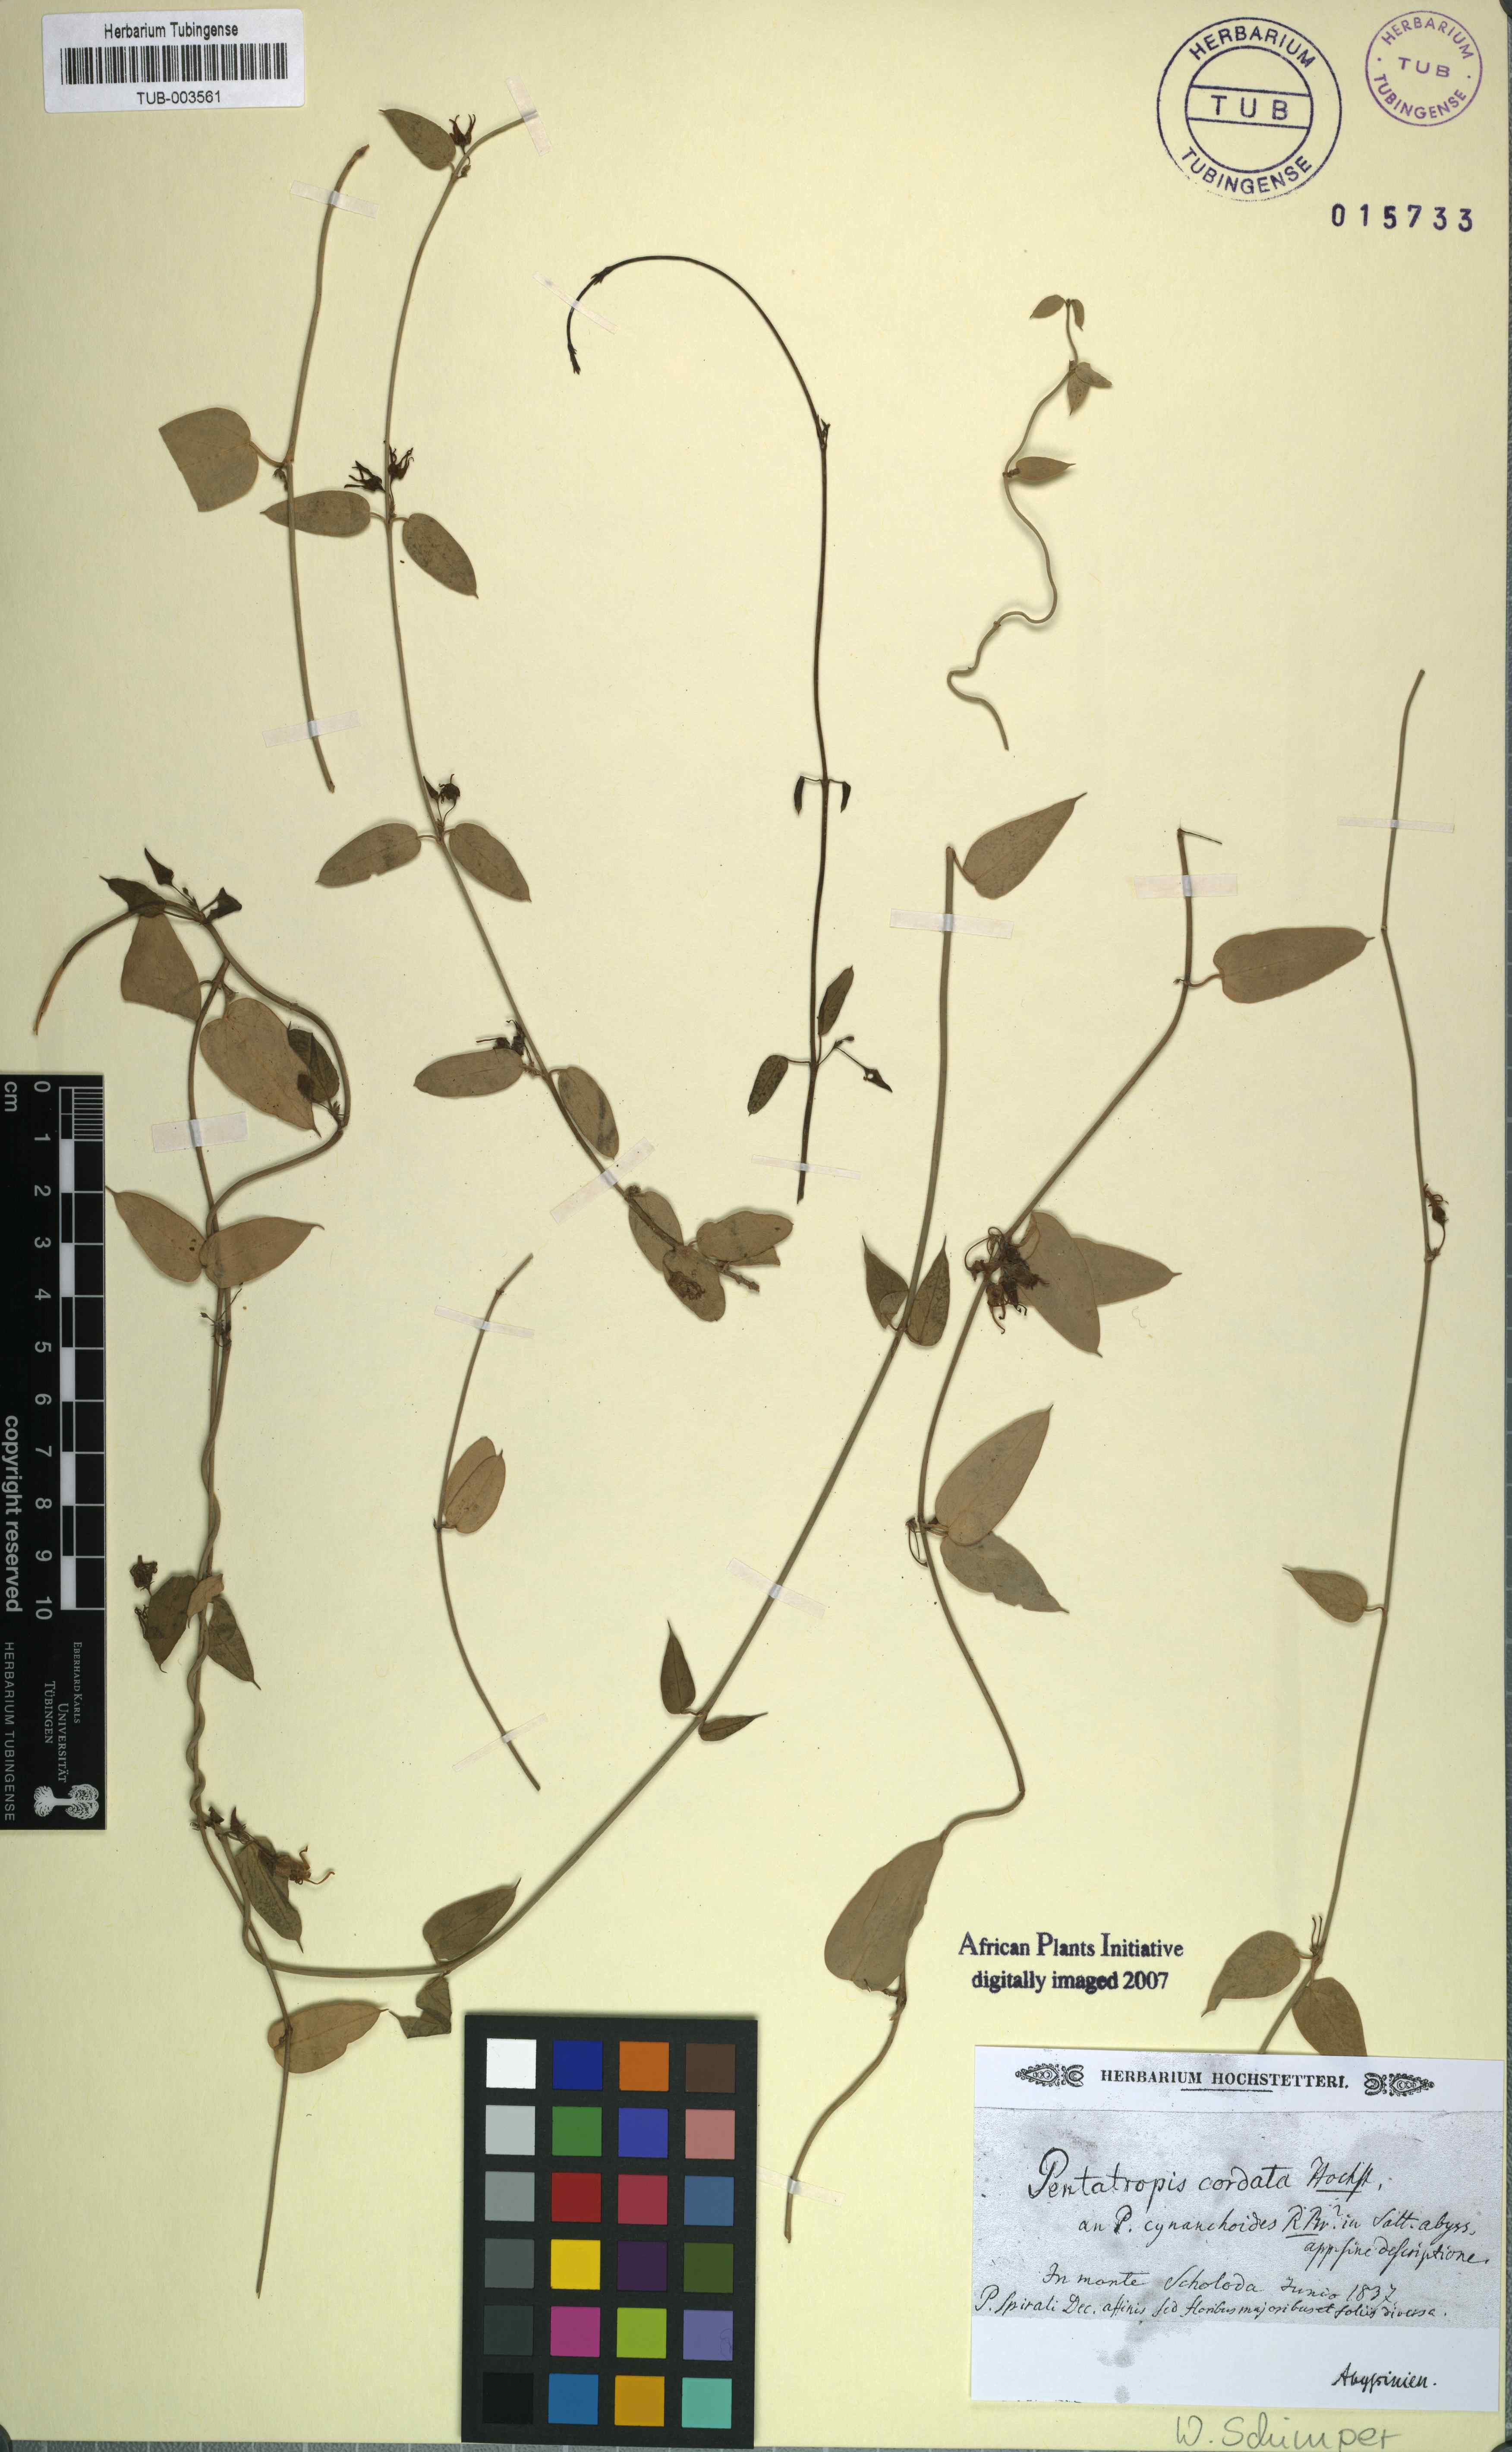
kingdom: Plantae
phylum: Tracheophyta
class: Magnoliopsida
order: Gentianales
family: Apocynaceae
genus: Pentatropis
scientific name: Pentatropis
